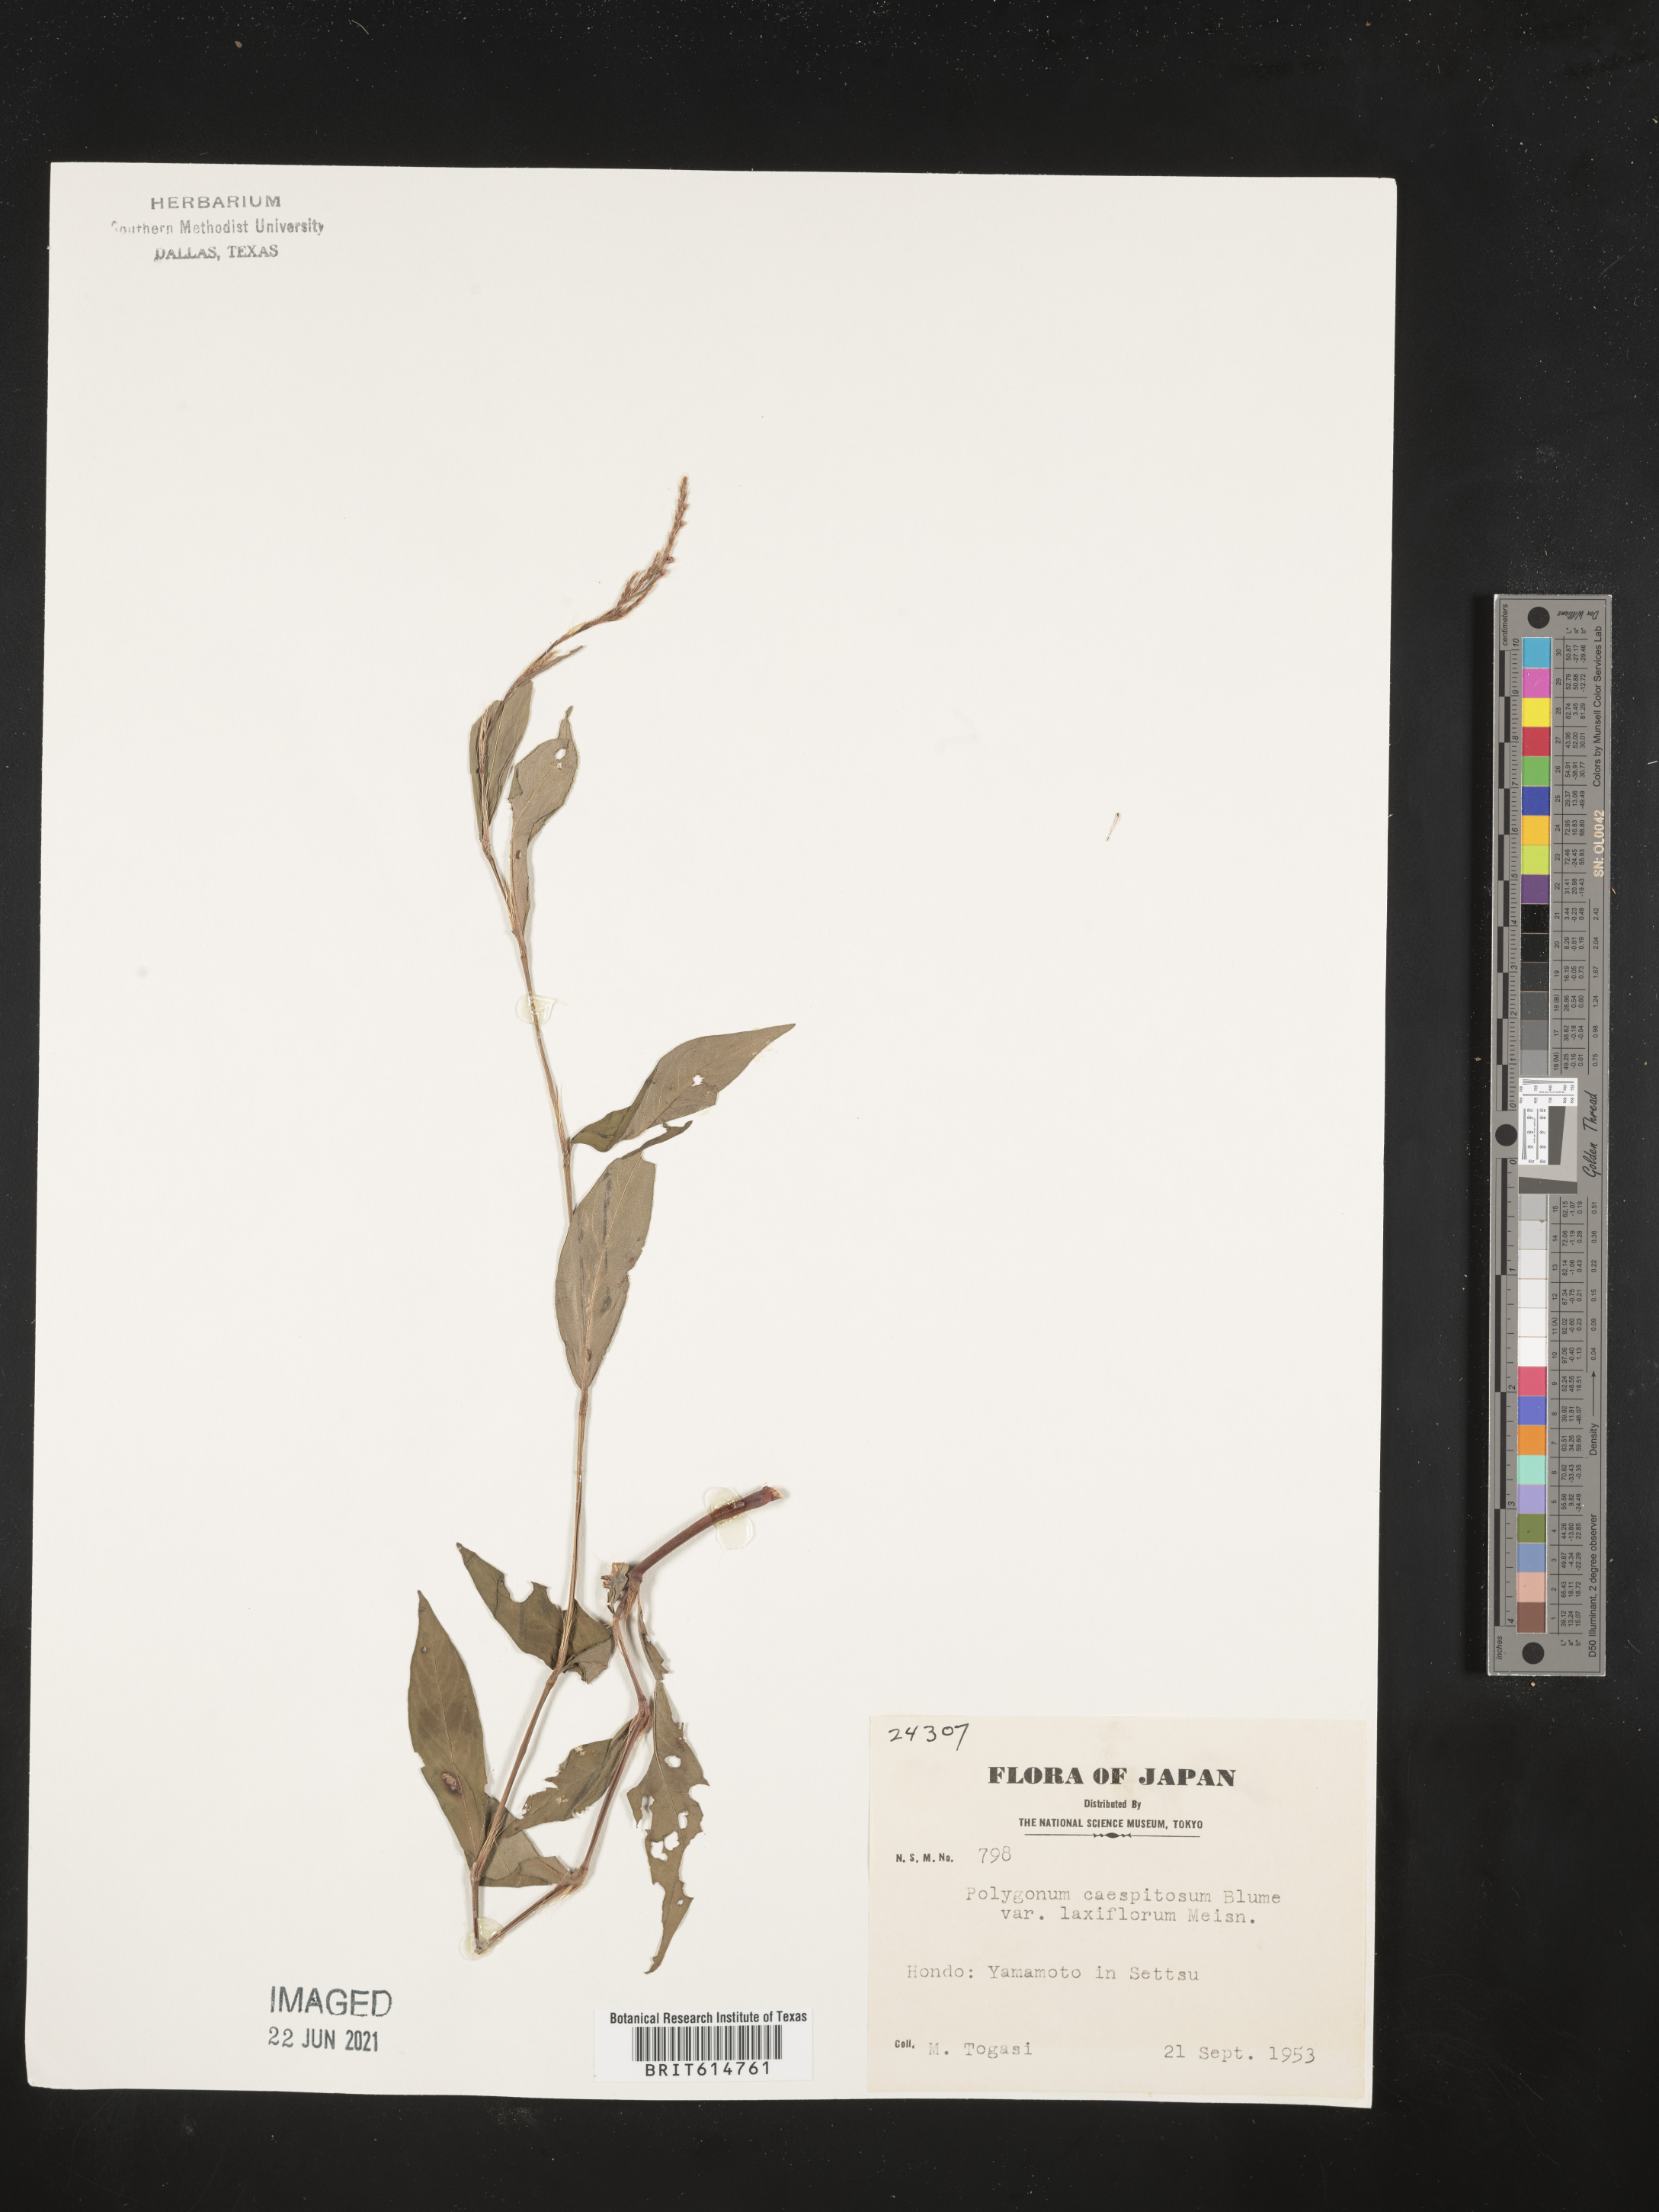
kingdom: Plantae
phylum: Tracheophyta
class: Magnoliopsida
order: Caryophyllales
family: Polygonaceae
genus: Persicaria
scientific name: Persicaria posumbu
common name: Oriental lady's thumb
